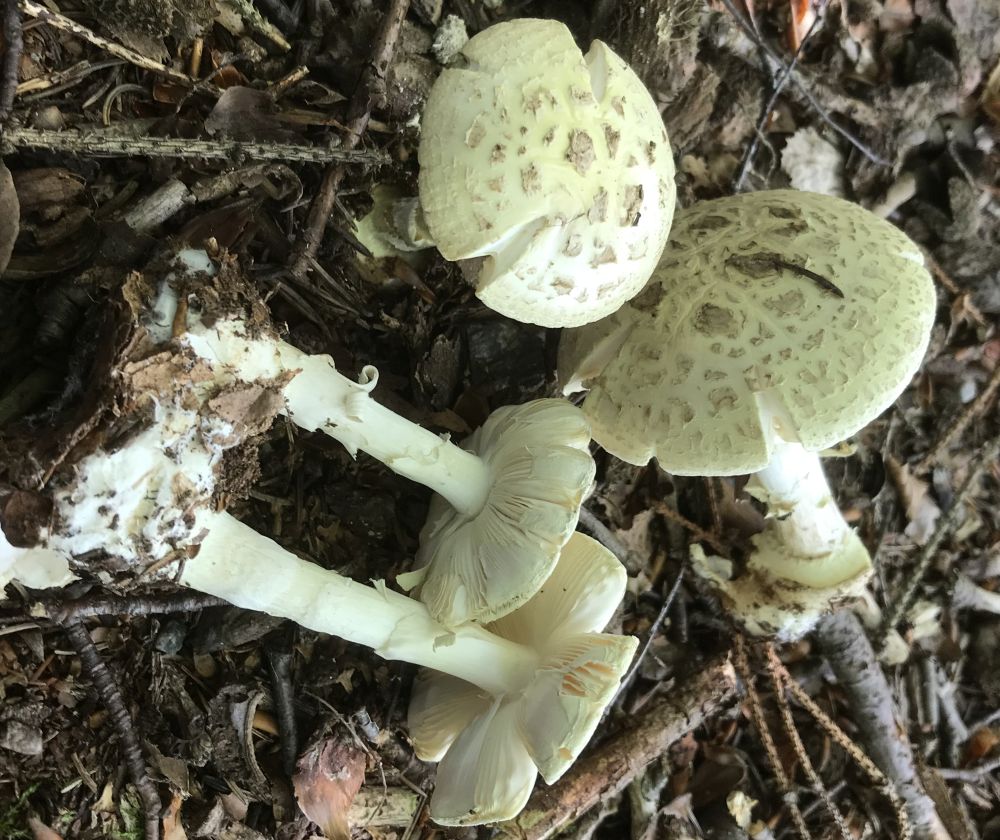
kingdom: Fungi
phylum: Basidiomycota
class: Agaricomycetes
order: Agaricales
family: Amanitaceae
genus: Amanita
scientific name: Amanita citrina
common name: kugleknoldet fluesvamp
